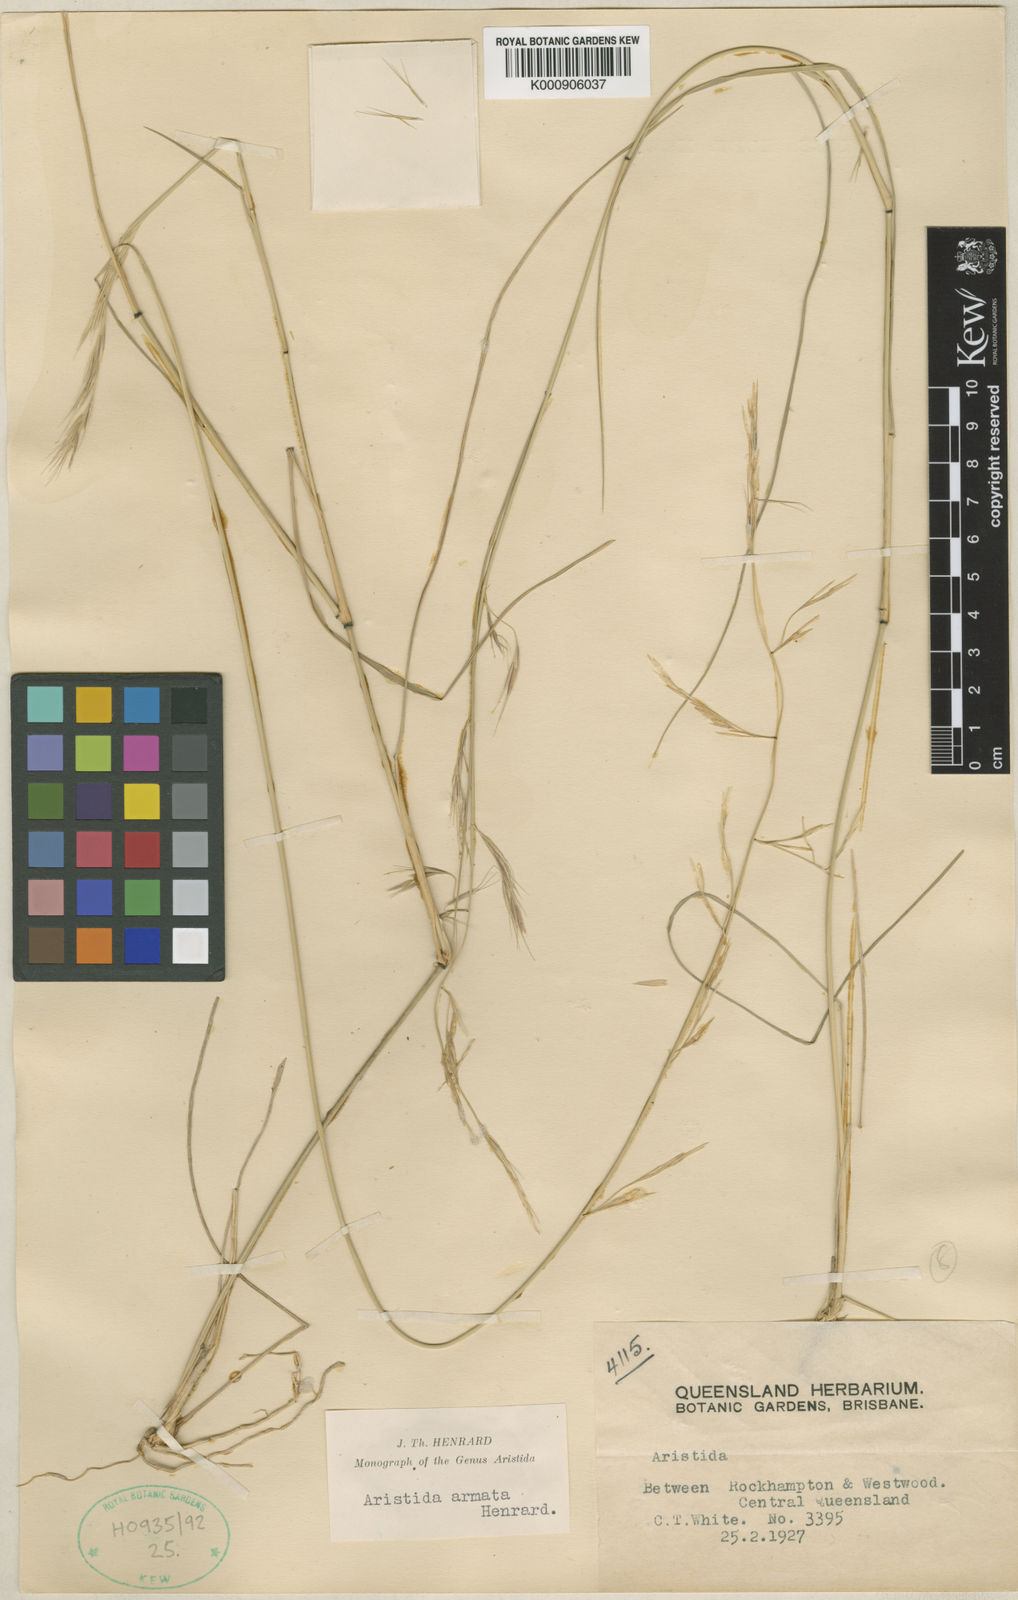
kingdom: Plantae
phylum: Tracheophyta
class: Liliopsida
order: Poales
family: Poaceae
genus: Aristida
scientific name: Aristida calycina
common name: Dark wire grass
